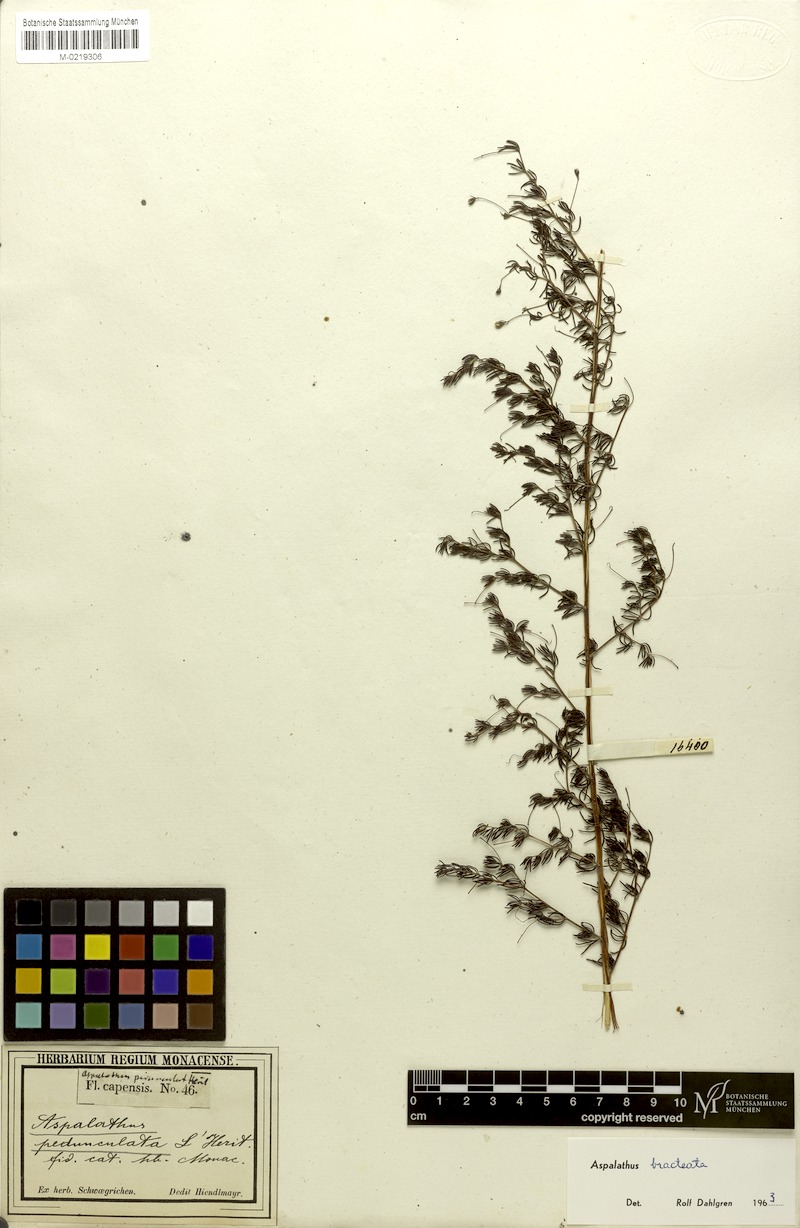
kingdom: Plantae
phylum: Tracheophyta
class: Magnoliopsida
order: Fabales
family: Fabaceae
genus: Aspalathus
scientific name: Aspalathus bracteata
